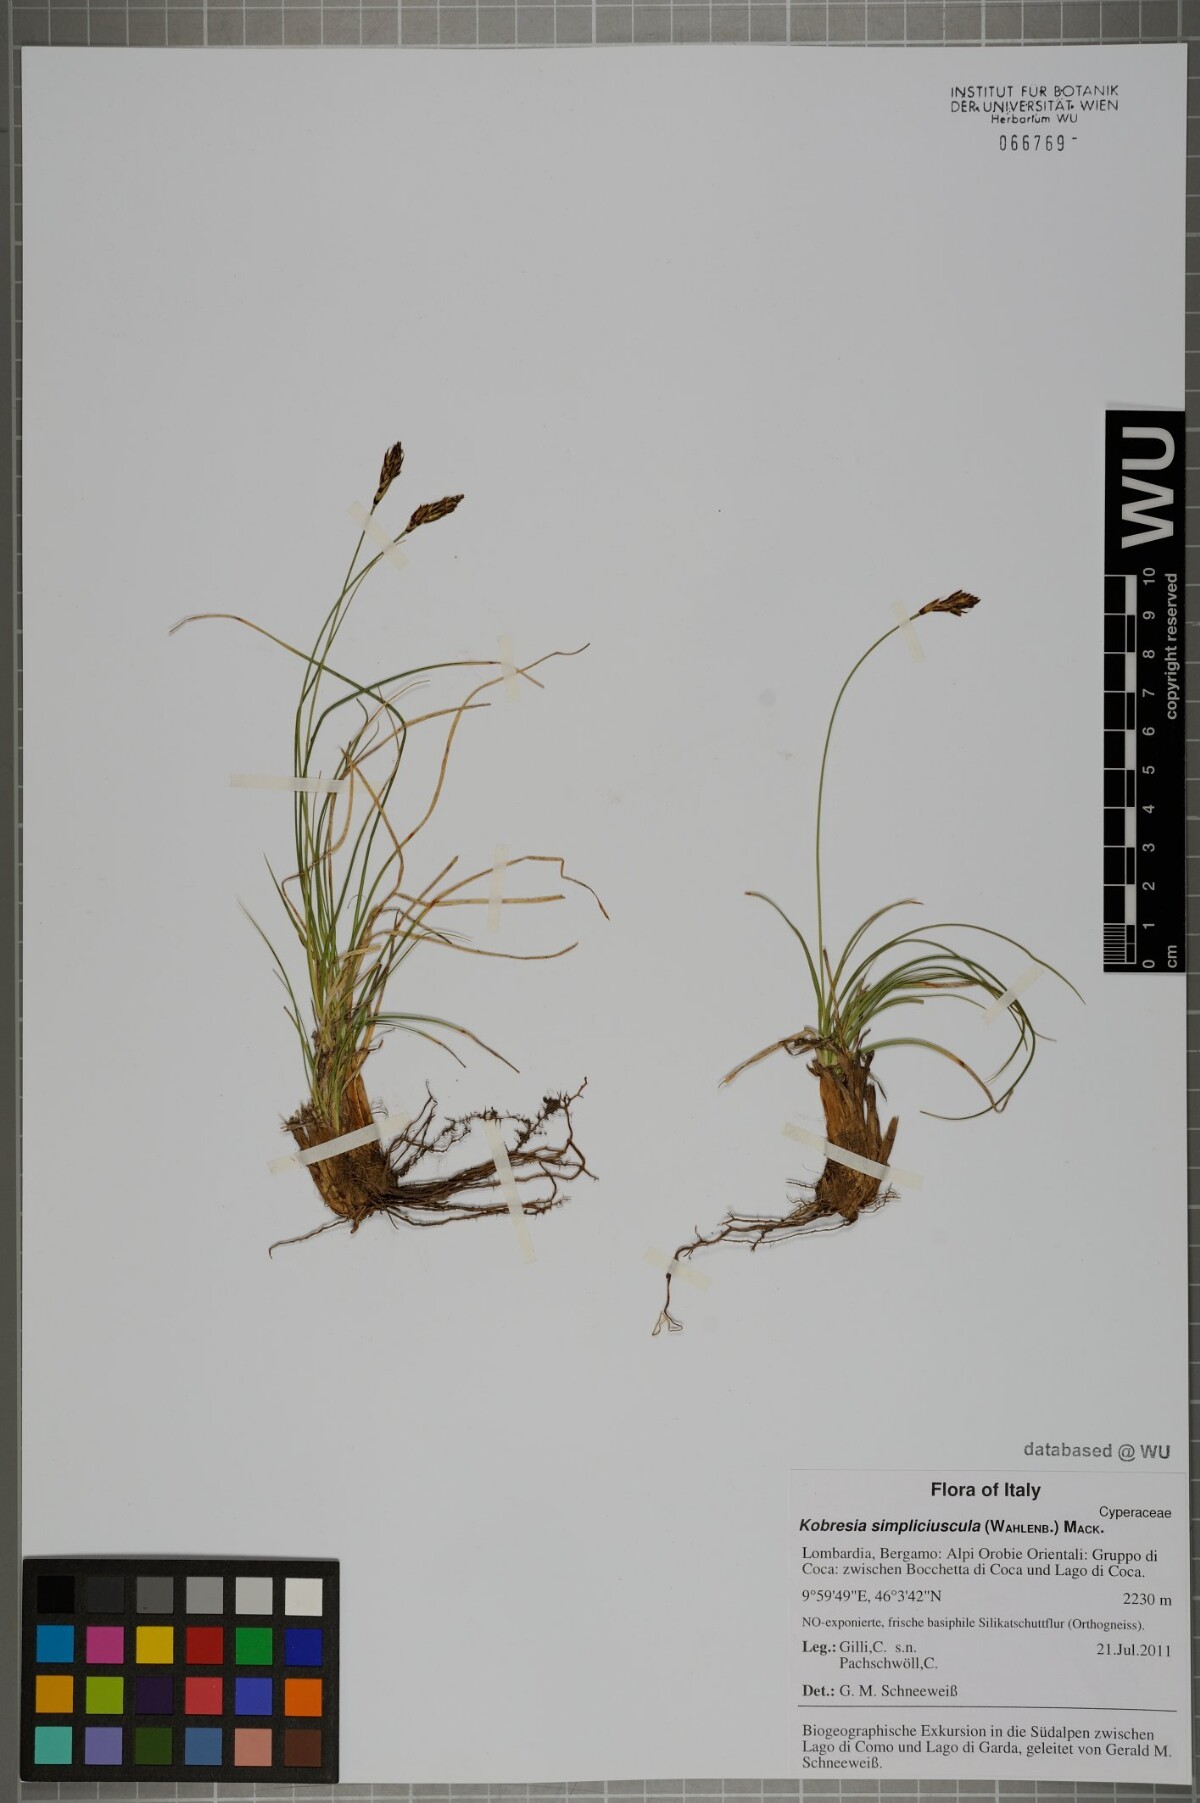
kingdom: Plantae
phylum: Tracheophyta
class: Liliopsida
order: Poales
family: Cyperaceae
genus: Carex
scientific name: Carex simpliciuscula
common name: Simple bog sedge
